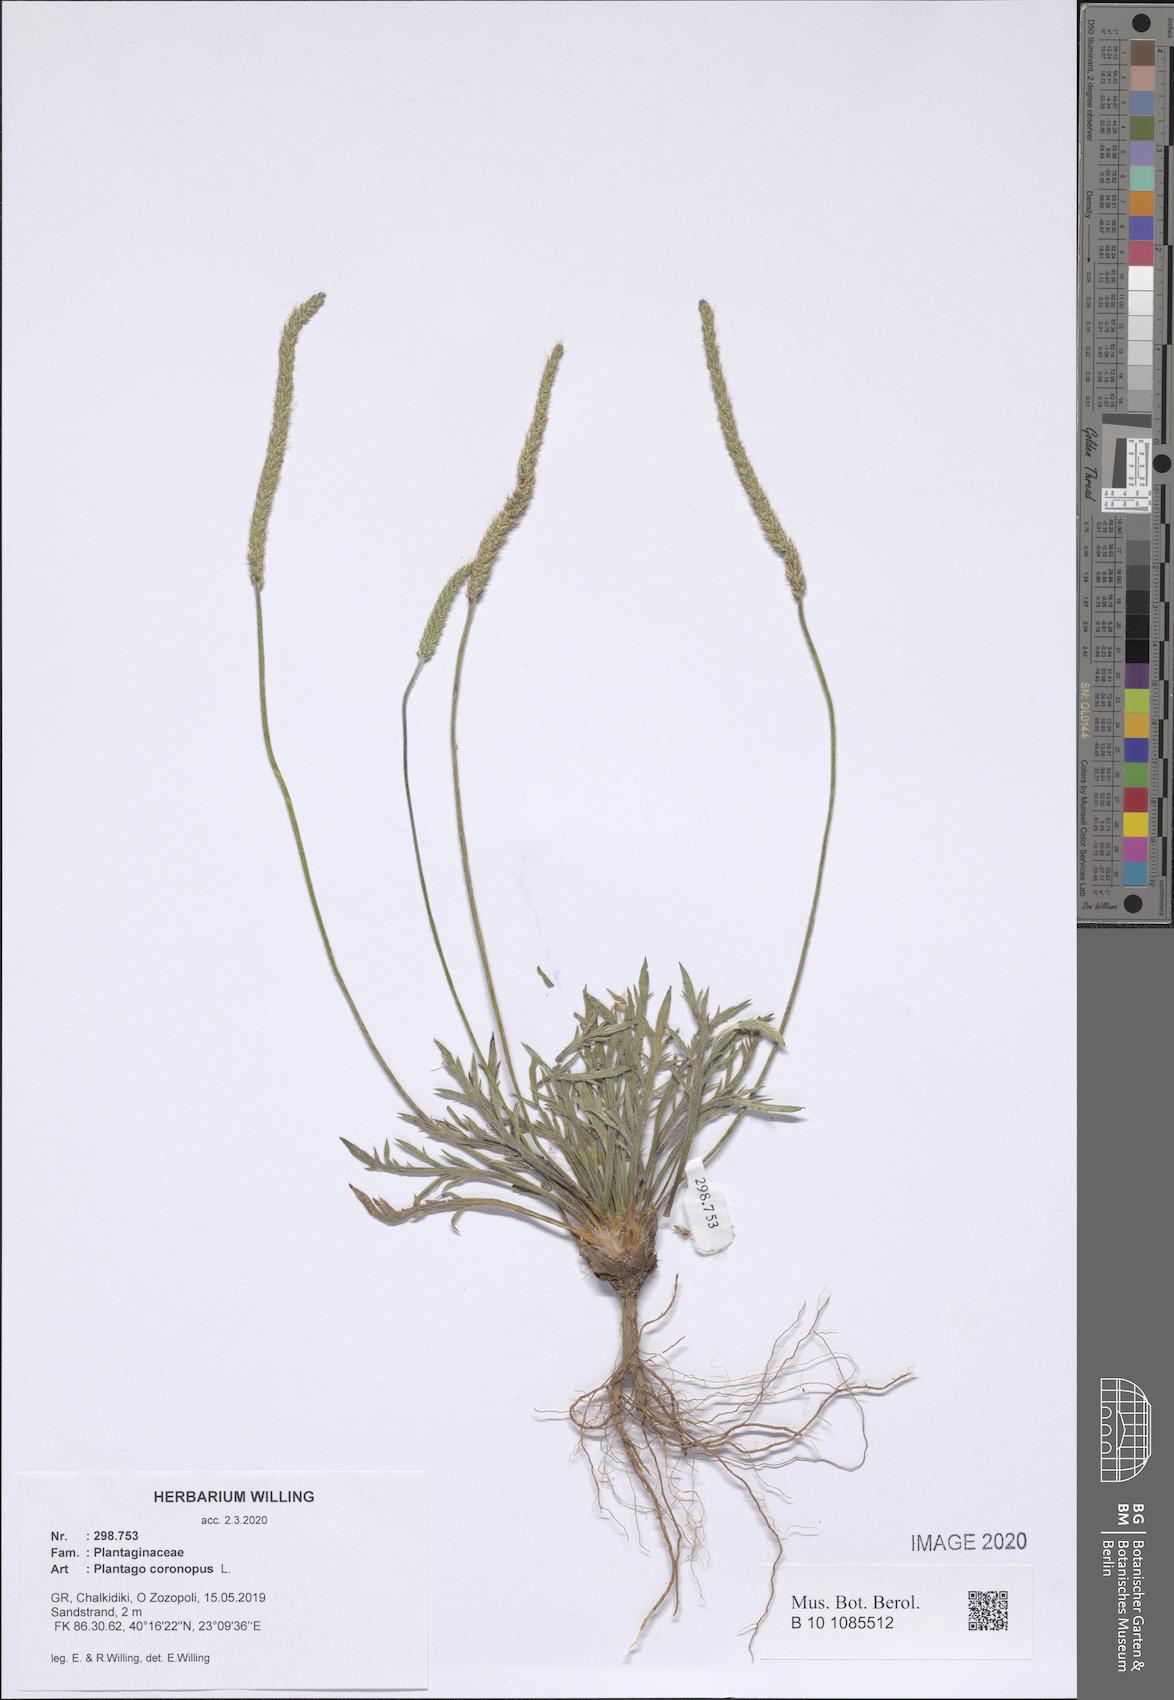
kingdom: Plantae
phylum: Tracheophyta
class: Magnoliopsida
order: Lamiales
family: Plantaginaceae
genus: Plantago
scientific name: Plantago coronopus
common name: Buck's-horn plantain
